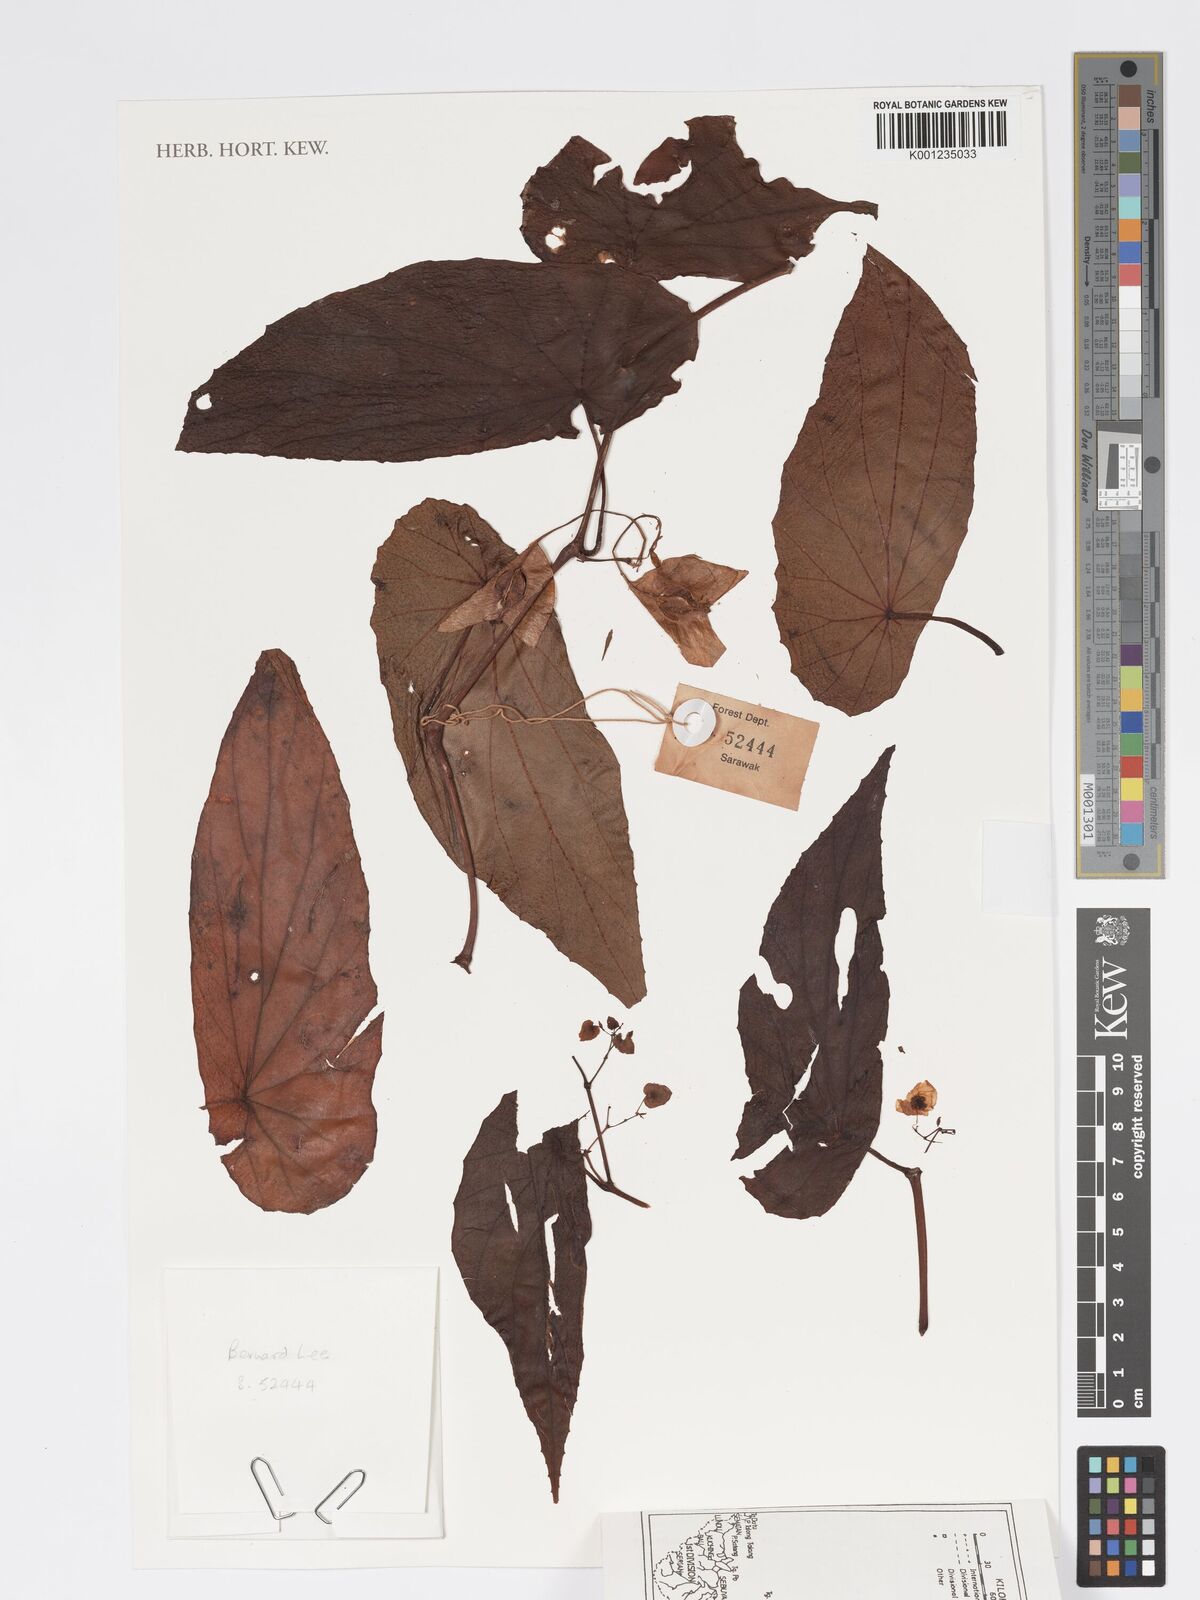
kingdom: Plantae
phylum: Tracheophyta
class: Magnoliopsida
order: Cucurbitales
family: Begoniaceae
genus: Begonia
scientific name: Begonia baramensis
